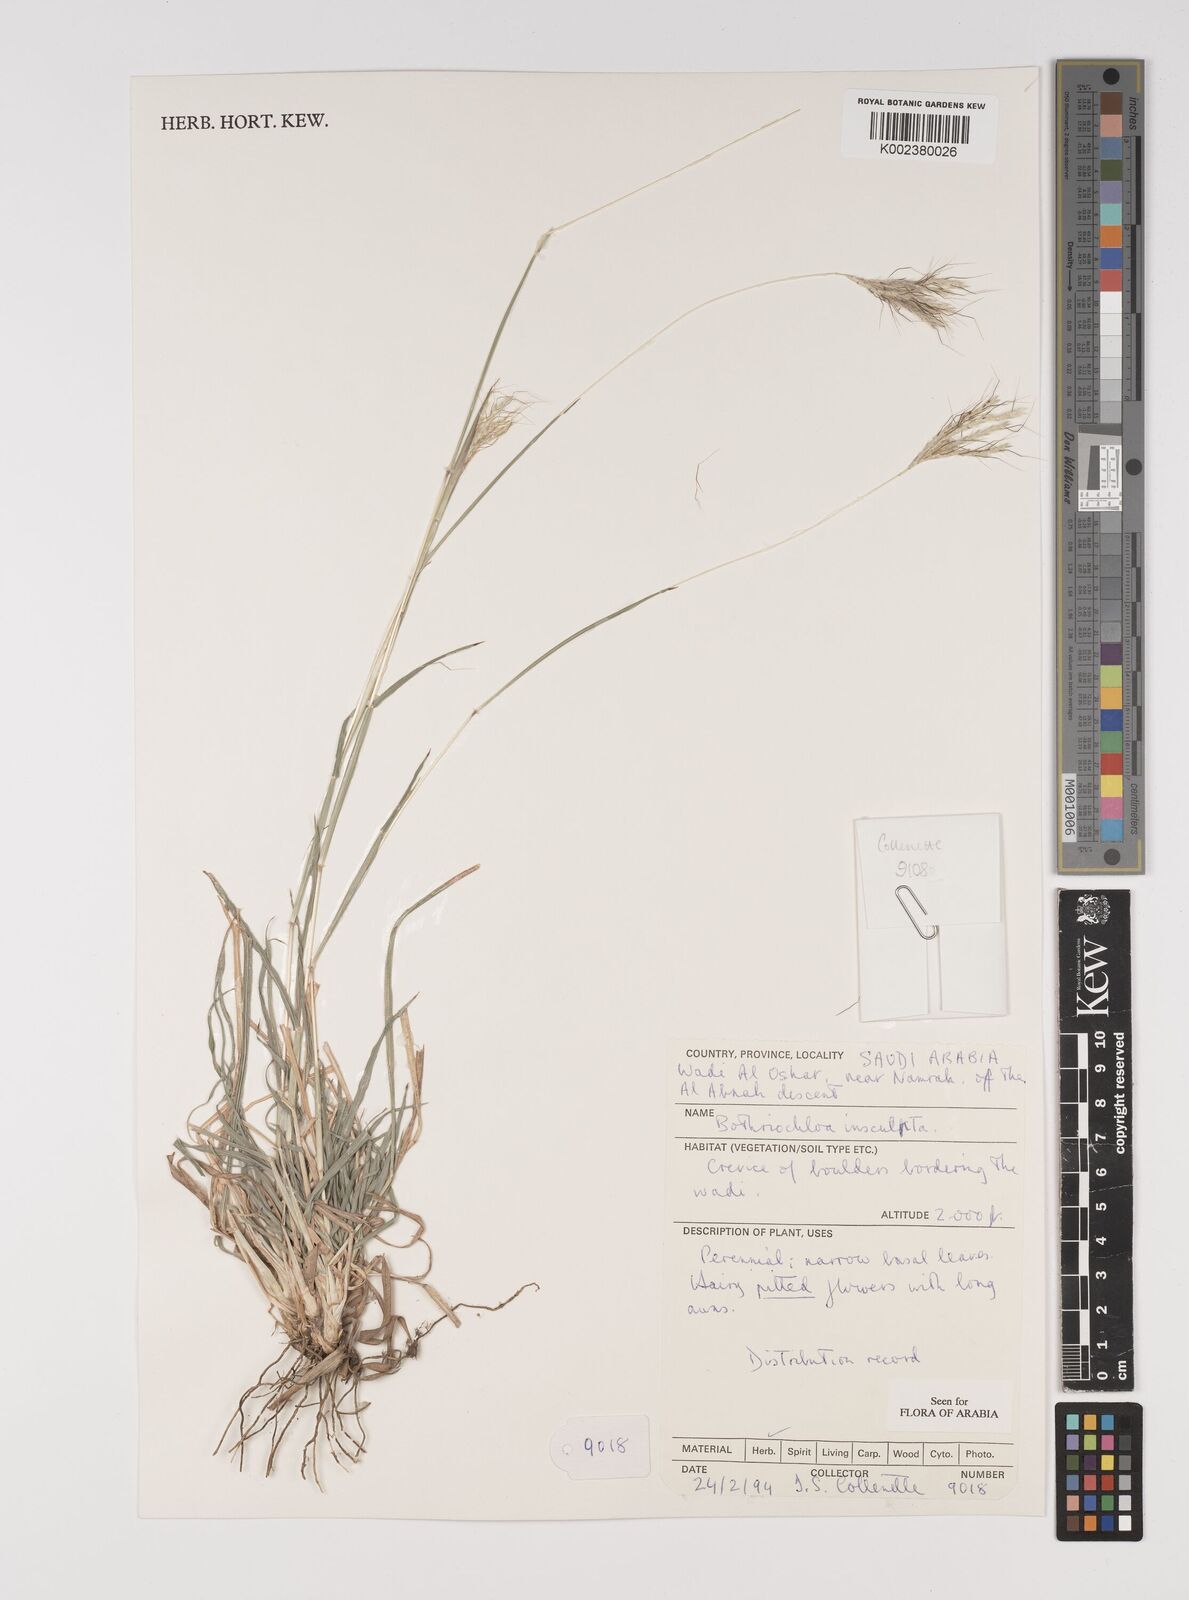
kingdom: Plantae
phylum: Tracheophyta
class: Liliopsida
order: Poales
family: Poaceae
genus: Bothriochloa
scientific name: Bothriochloa insculpta
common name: Creeping-bluegrass
